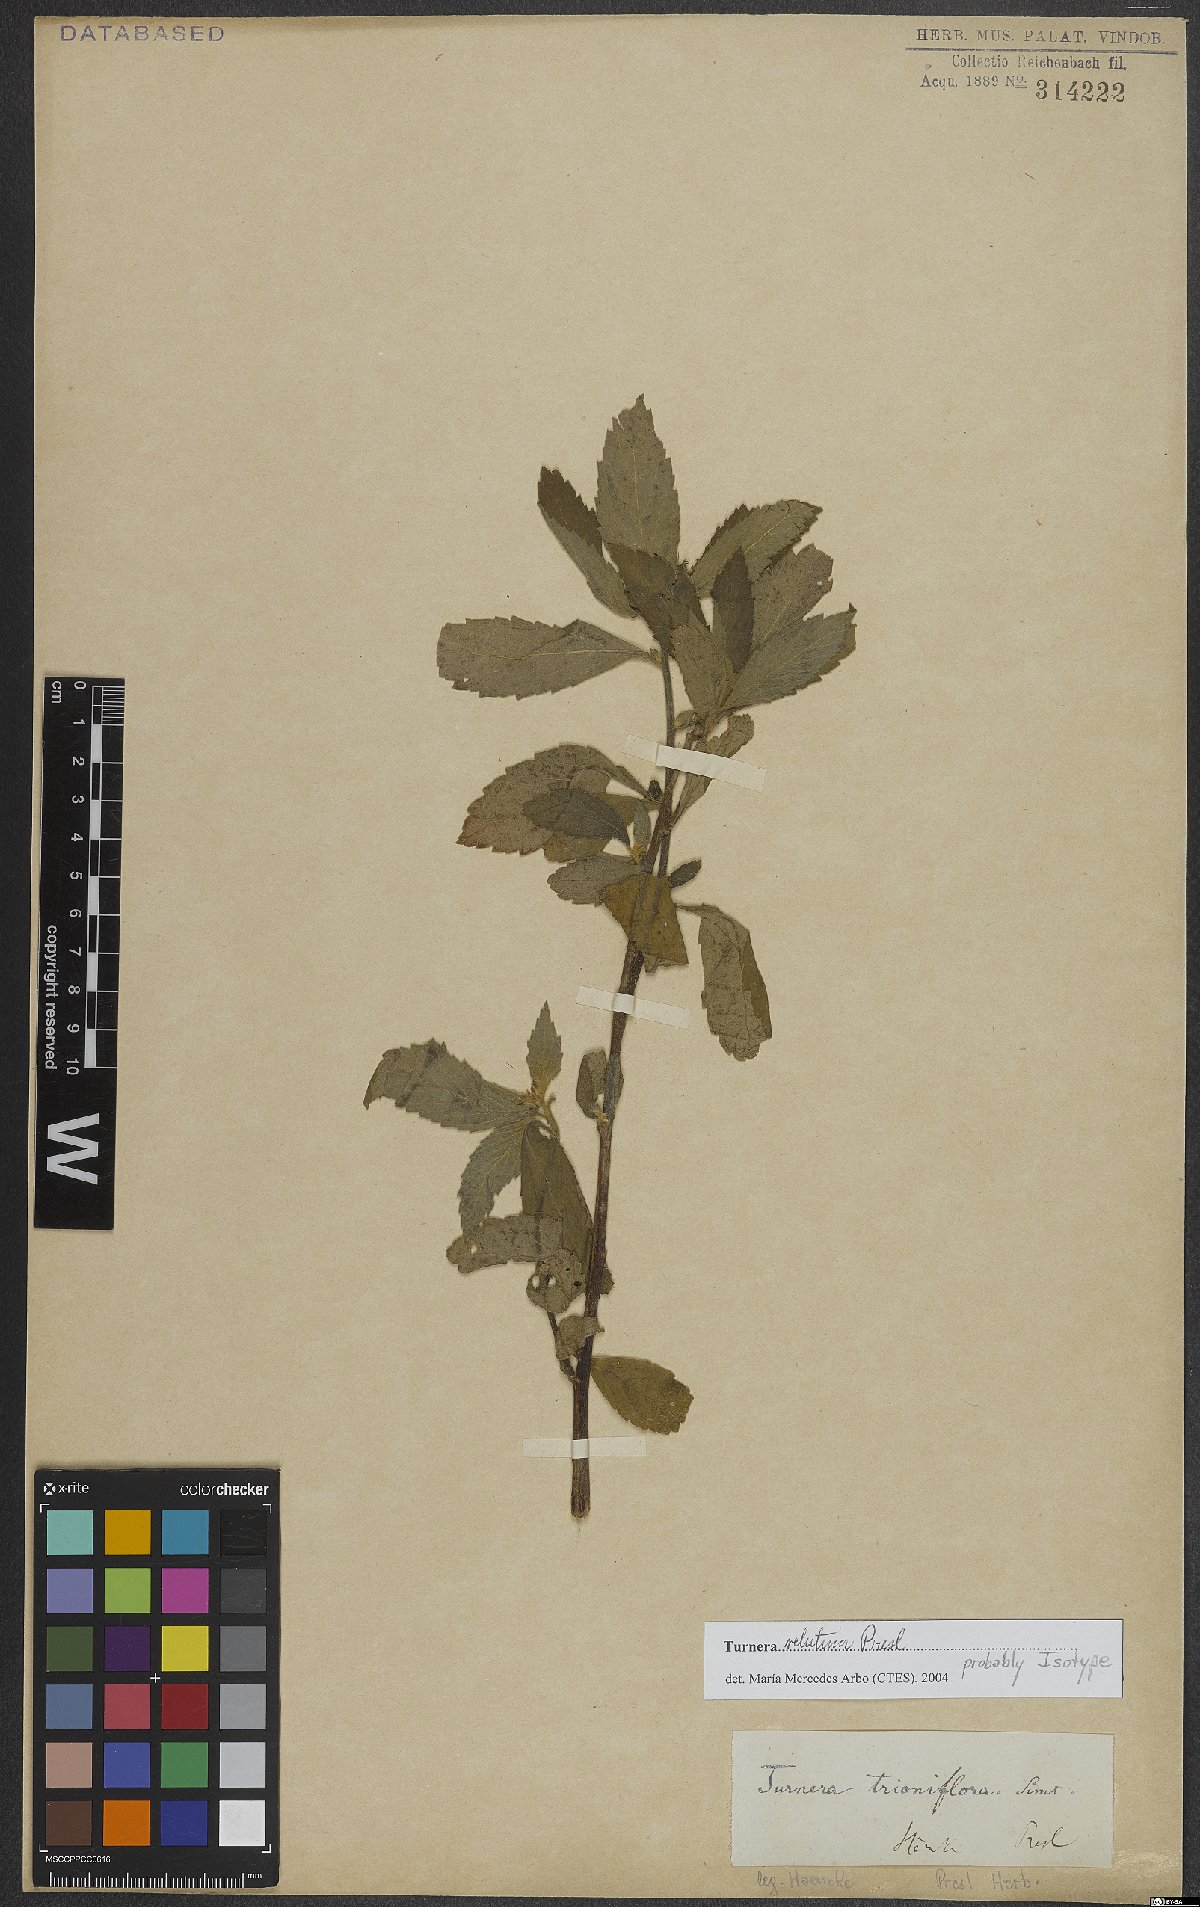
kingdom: Plantae
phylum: Tracheophyta
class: Magnoliopsida
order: Malpighiales
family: Turneraceae
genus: Turnera
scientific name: Turnera velutina
